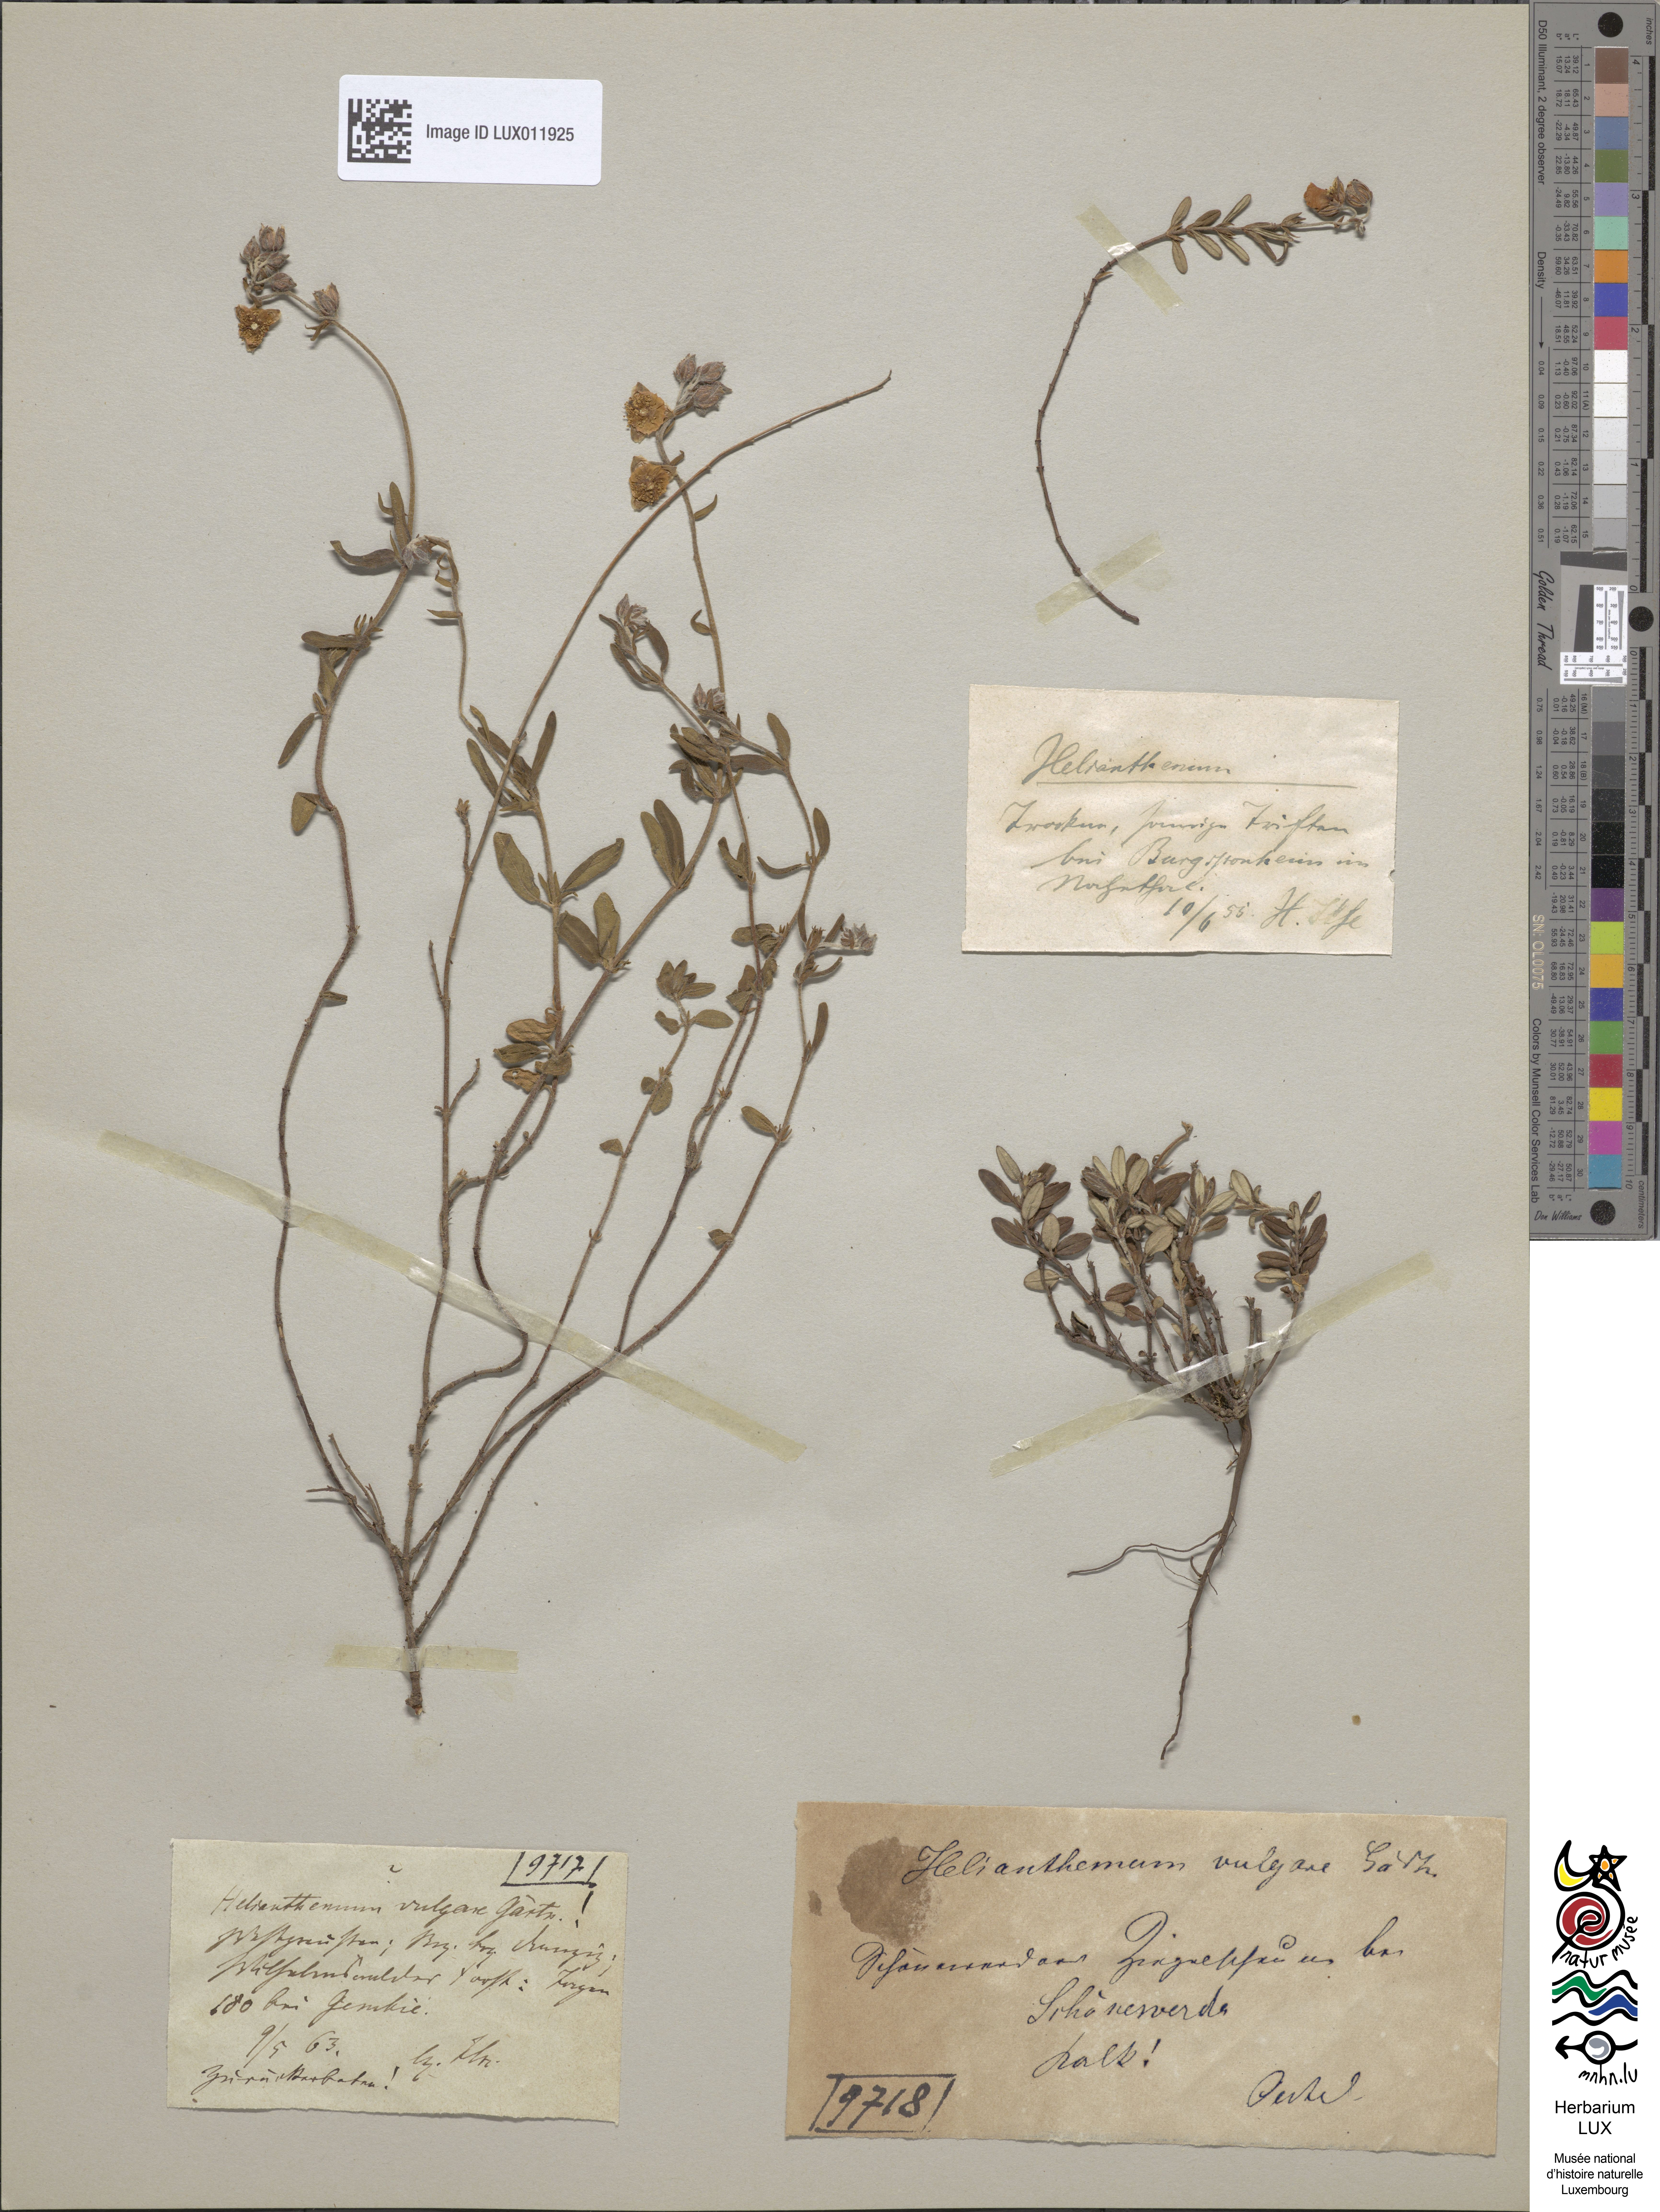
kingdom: Plantae
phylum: Tracheophyta
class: Magnoliopsida
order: Malvales
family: Cistaceae
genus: Helianthemum
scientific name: Helianthemum nummularium
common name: Common rock-rose
